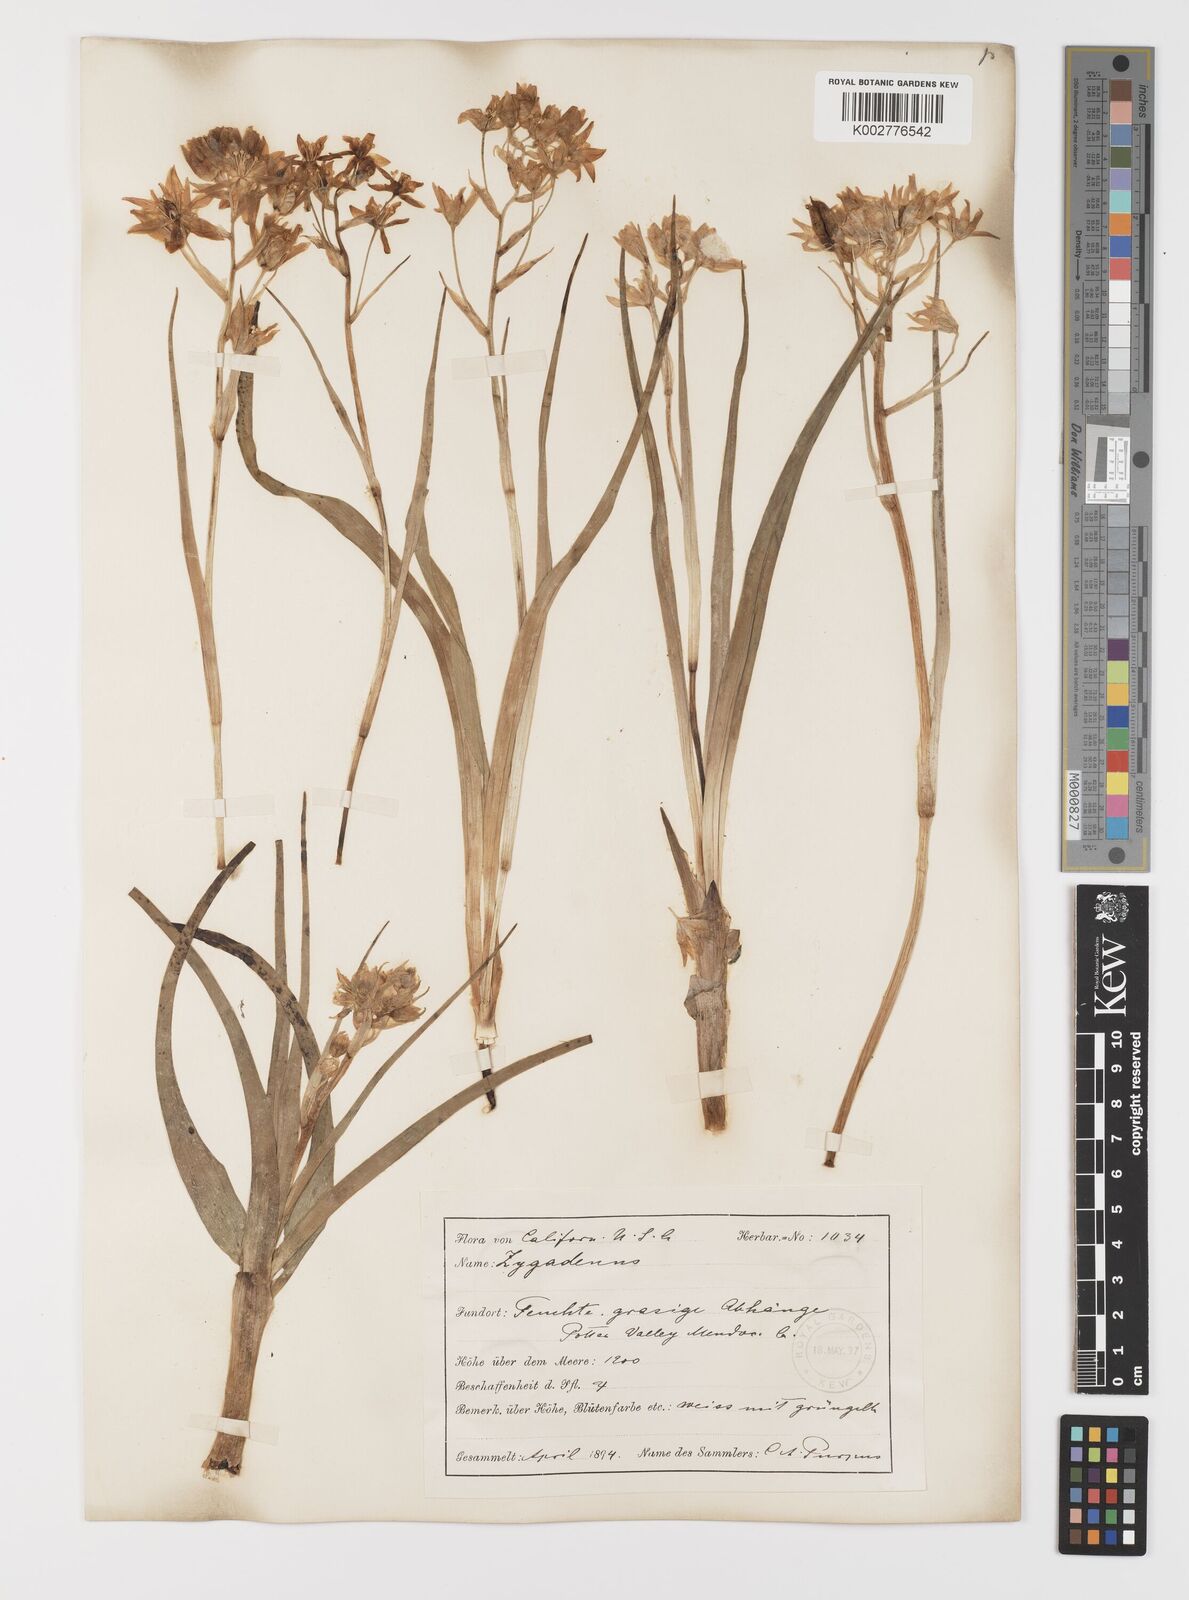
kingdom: Plantae
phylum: Tracheophyta
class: Liliopsida
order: Liliales
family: Melanthiaceae
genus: Toxicoscordion
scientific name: Toxicoscordion fremontii
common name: Fremont's death camas
